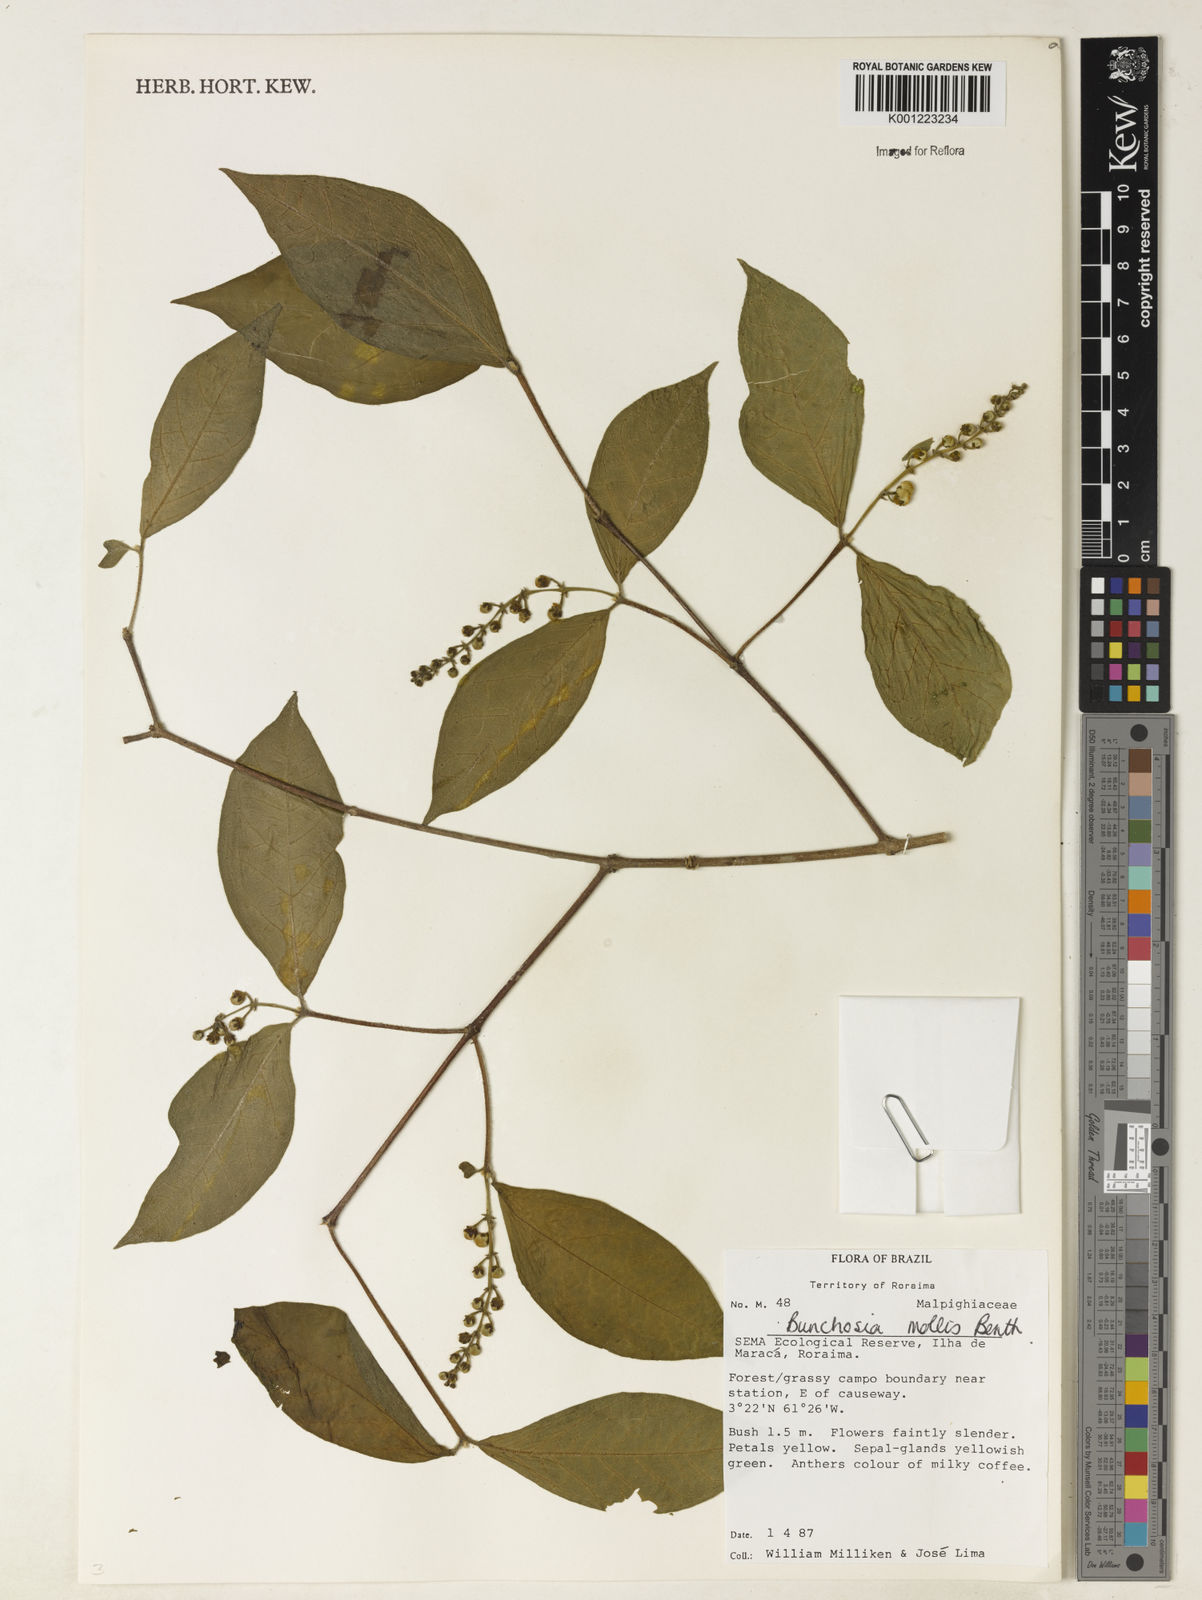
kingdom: Plantae
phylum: Tracheophyta
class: Magnoliopsida
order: Malpighiales
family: Malpighiaceae
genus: Bunchosia
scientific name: Bunchosia mollis
